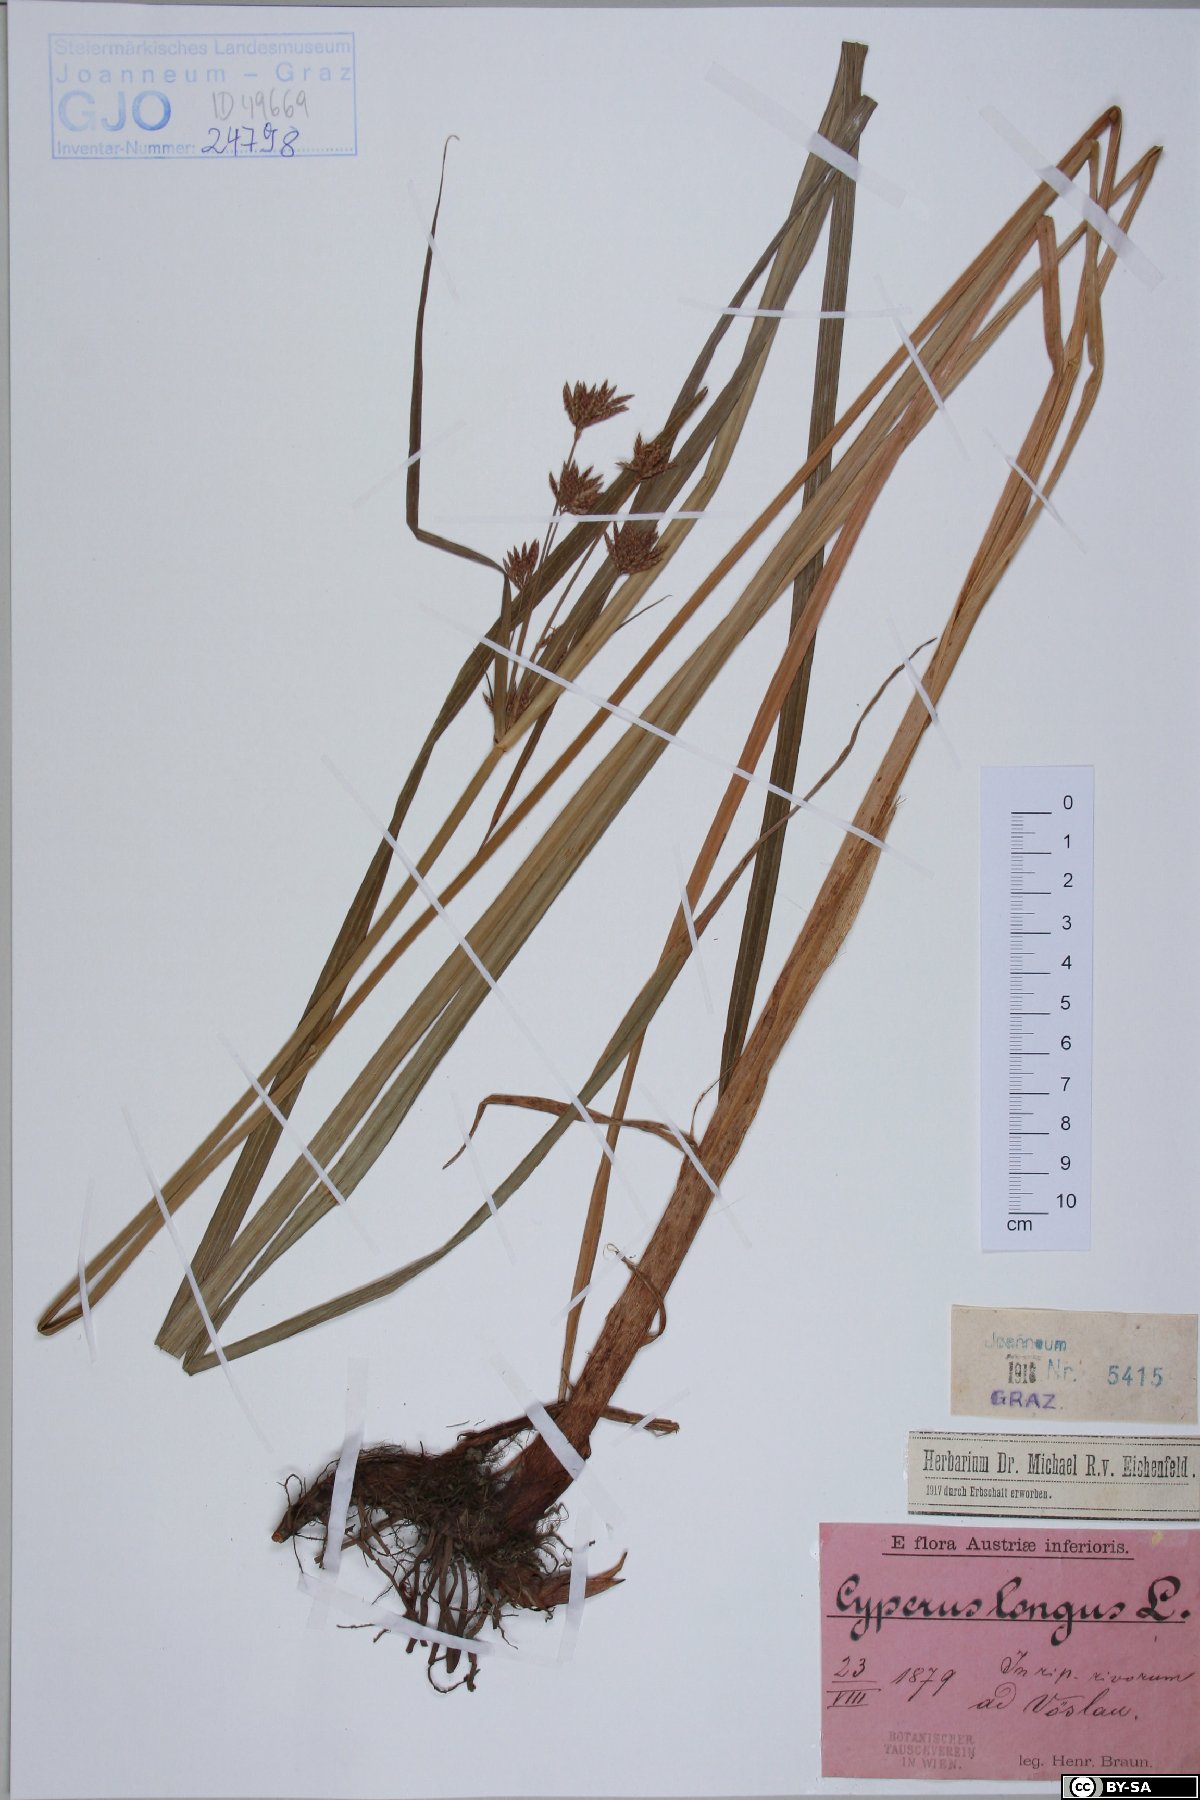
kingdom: Plantae
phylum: Tracheophyta
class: Liliopsida
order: Poales
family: Cyperaceae
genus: Cyperus
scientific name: Cyperus longus
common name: Galingale
